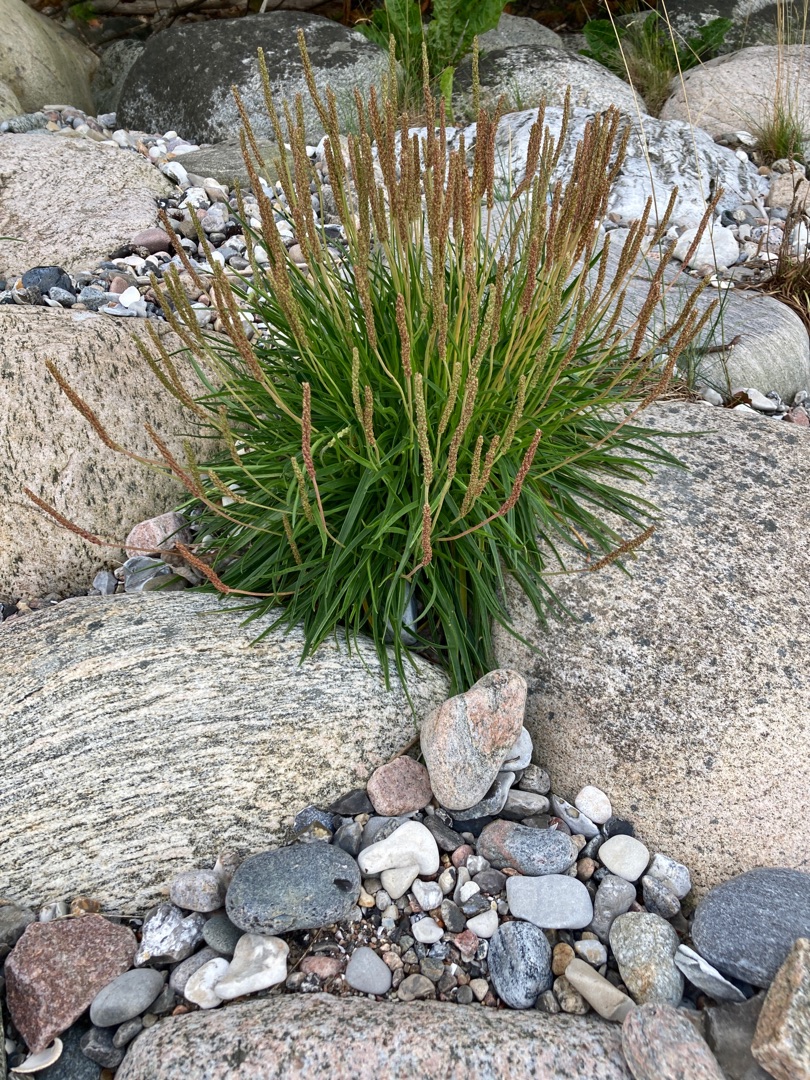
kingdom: Plantae
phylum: Tracheophyta
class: Magnoliopsida
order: Lamiales
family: Plantaginaceae
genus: Plantago
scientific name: Plantago maritima
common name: Strand-vejbred
